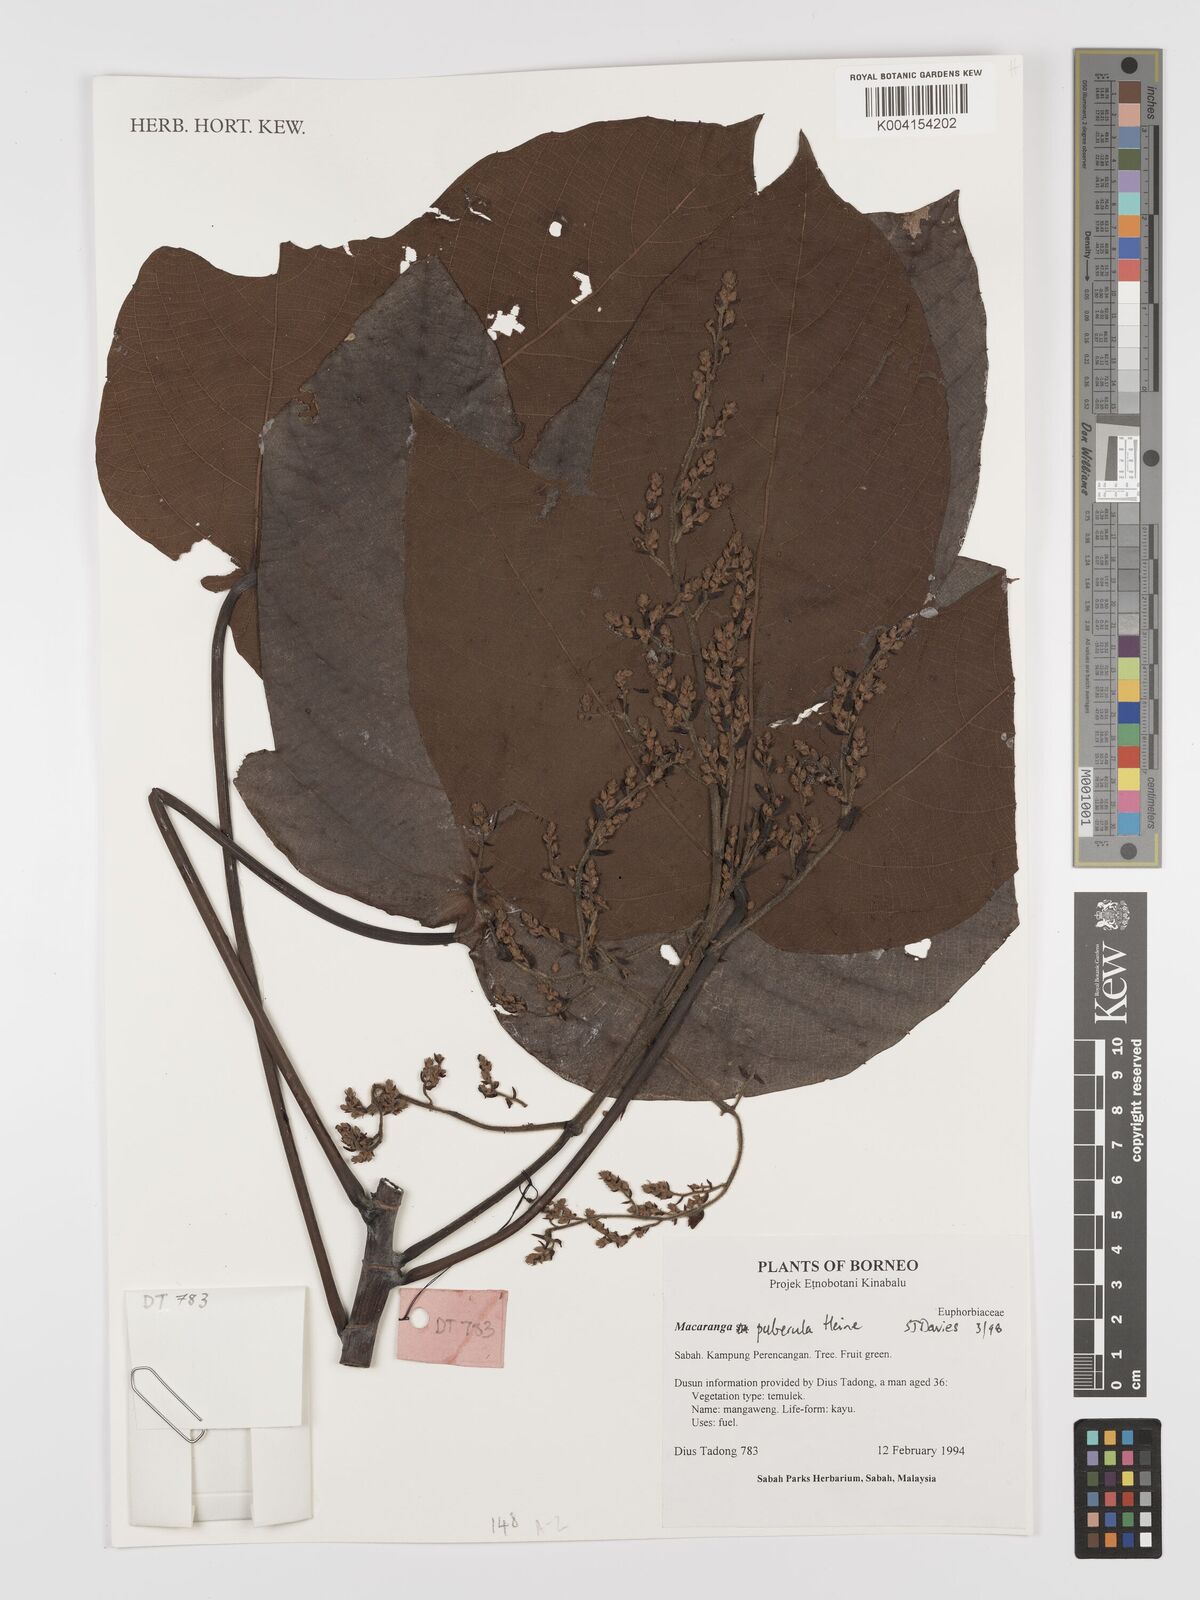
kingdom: Plantae
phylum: Tracheophyta
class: Magnoliopsida
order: Malpighiales
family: Euphorbiaceae
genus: Macaranga
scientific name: Macaranga puberula
